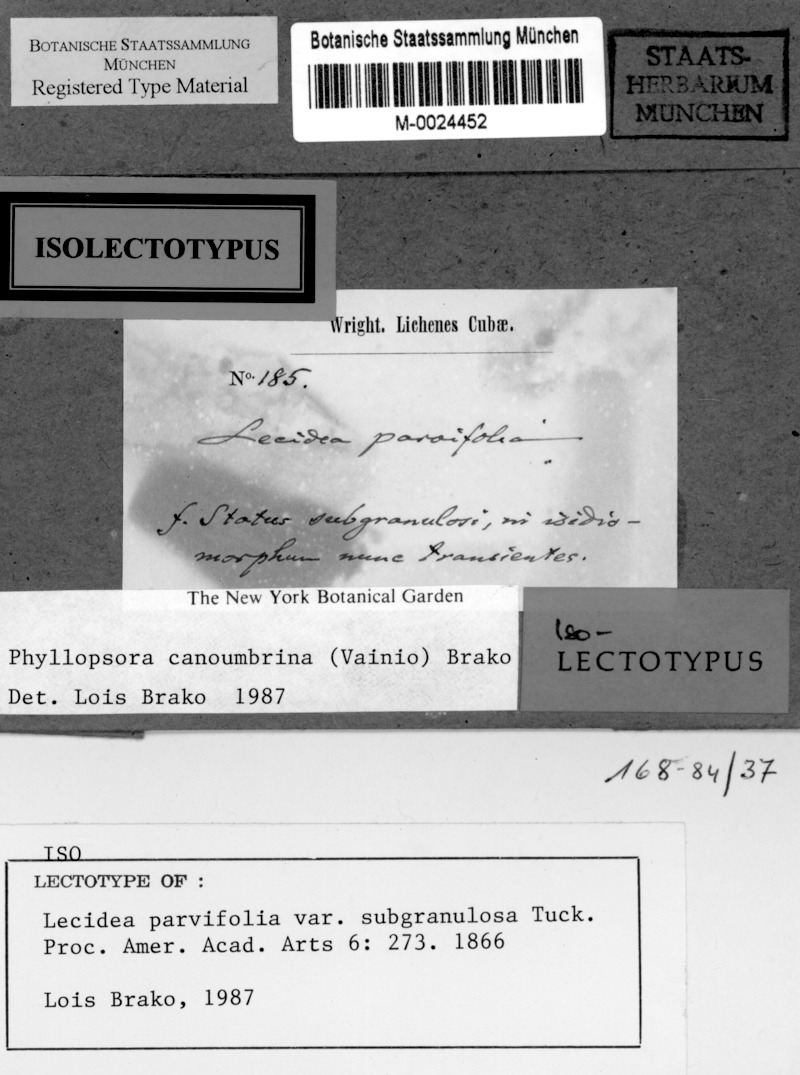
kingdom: Fungi
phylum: Ascomycota
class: Lecanoromycetes
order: Lecanorales
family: Ramalinaceae
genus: Wolseleyidea
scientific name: Wolseleyidea canoumbrina
